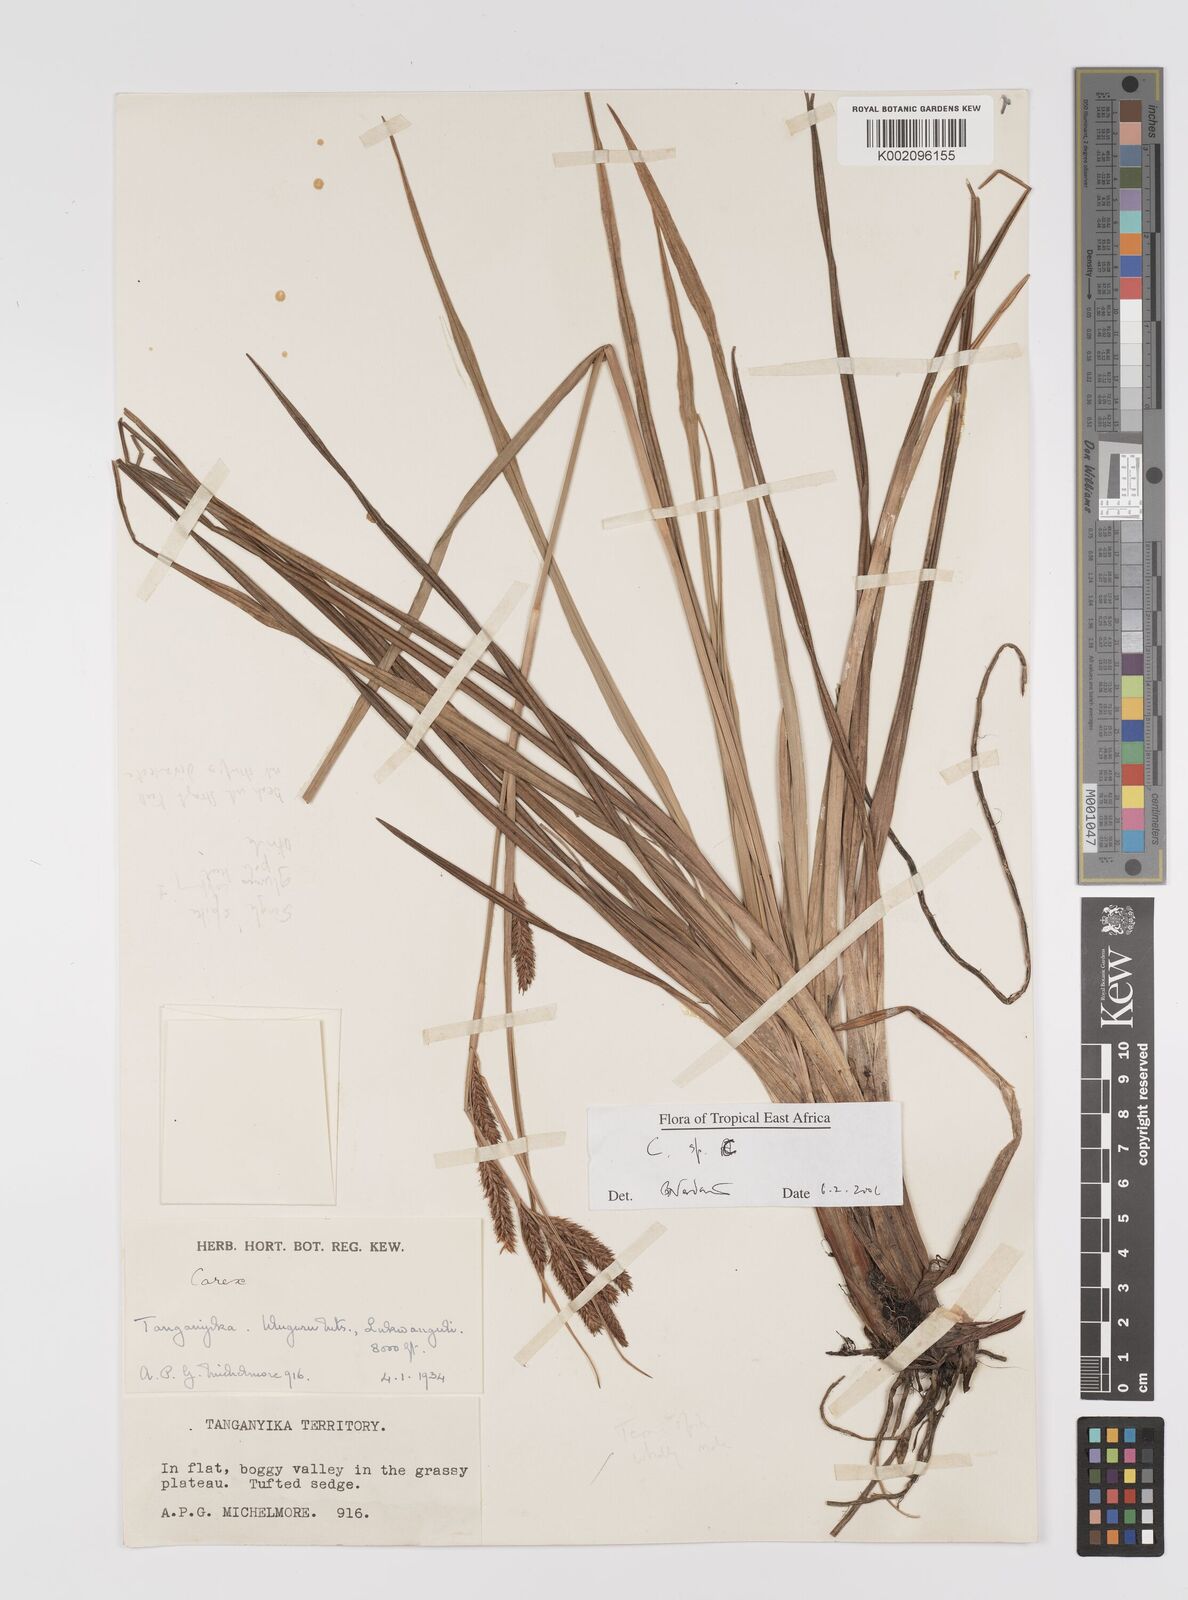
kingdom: Plantae
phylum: Tracheophyta
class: Liliopsida
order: Poales
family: Cyperaceae
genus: Carex
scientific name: Carex
